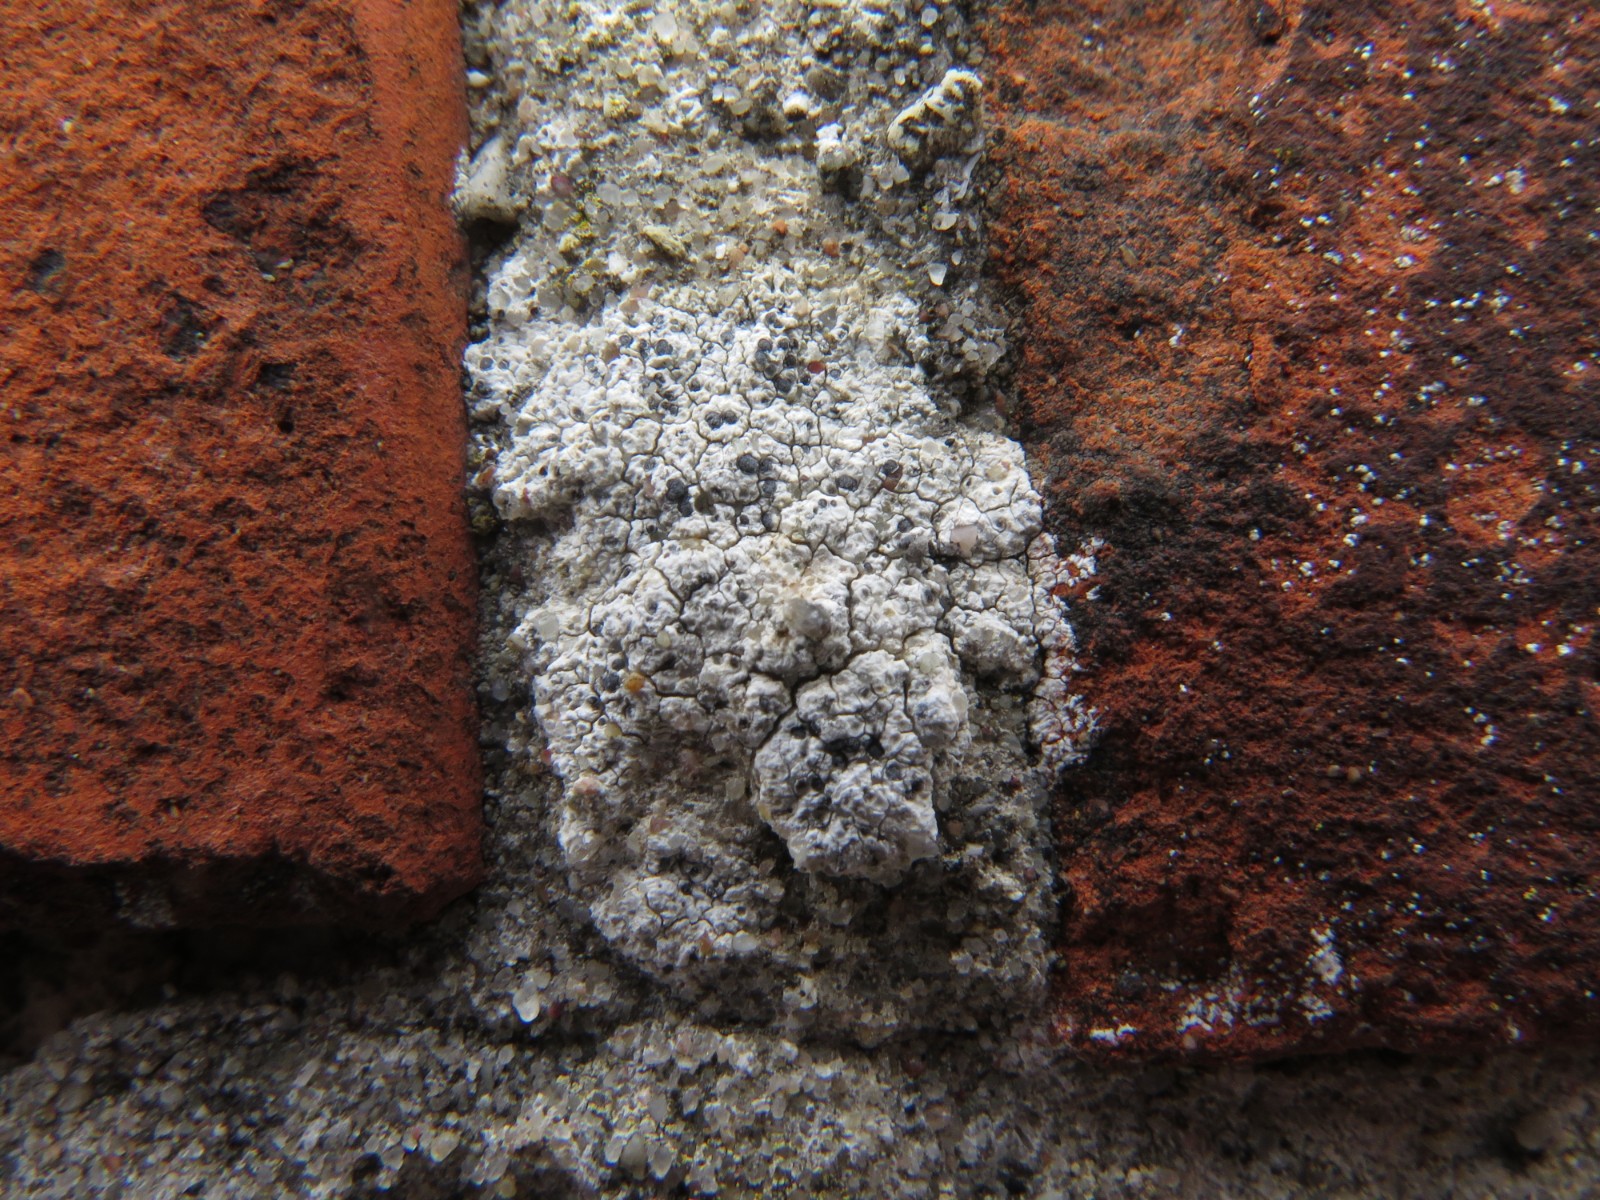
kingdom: Fungi
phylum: Ascomycota
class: Lecanoromycetes
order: Lecanorales
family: Lecanoraceae
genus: Polyozosia
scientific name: Polyozosia albescens
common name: cement-kantskivelav
